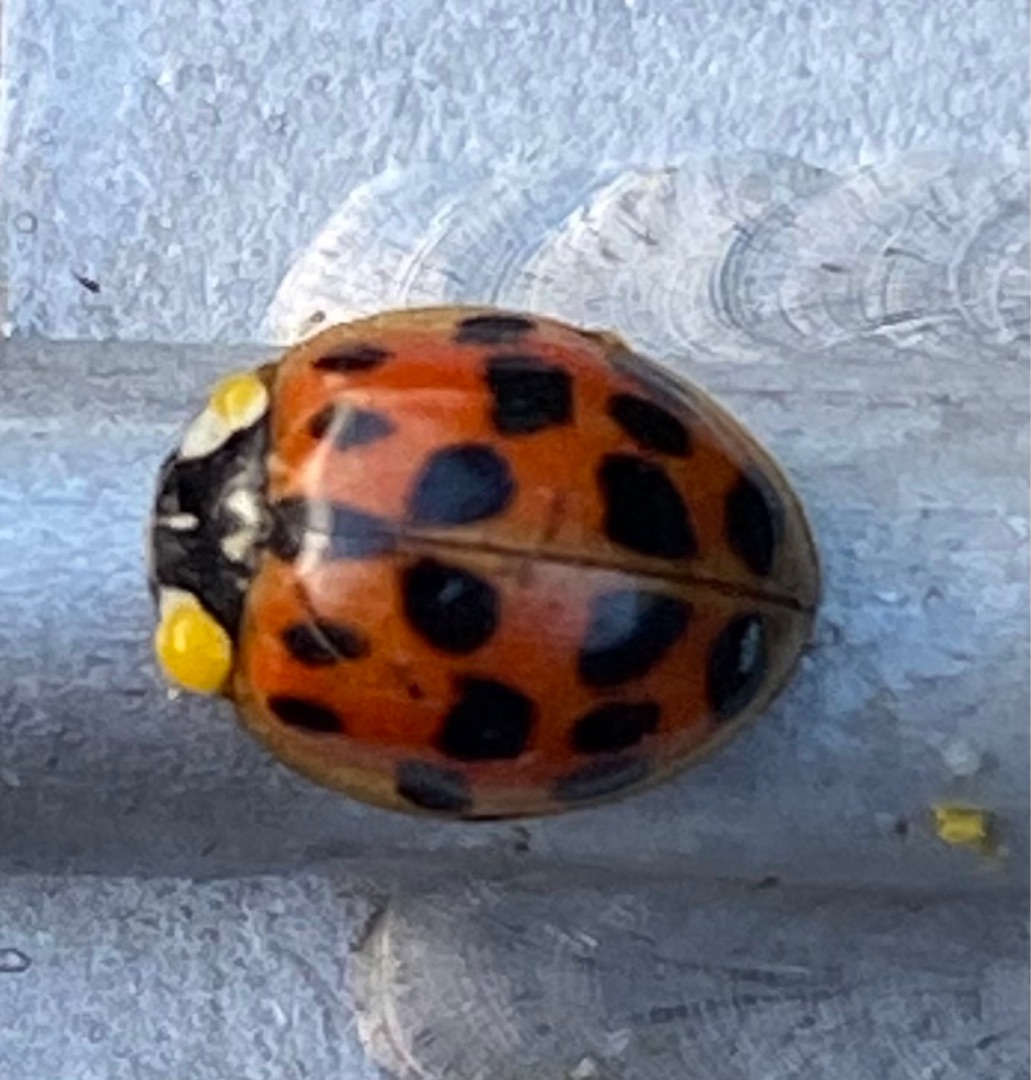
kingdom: Animalia
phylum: Arthropoda
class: Insecta
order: Coleoptera
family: Coccinellidae
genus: Harmonia
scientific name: Harmonia axyridis
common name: Harlekinmariehøne
